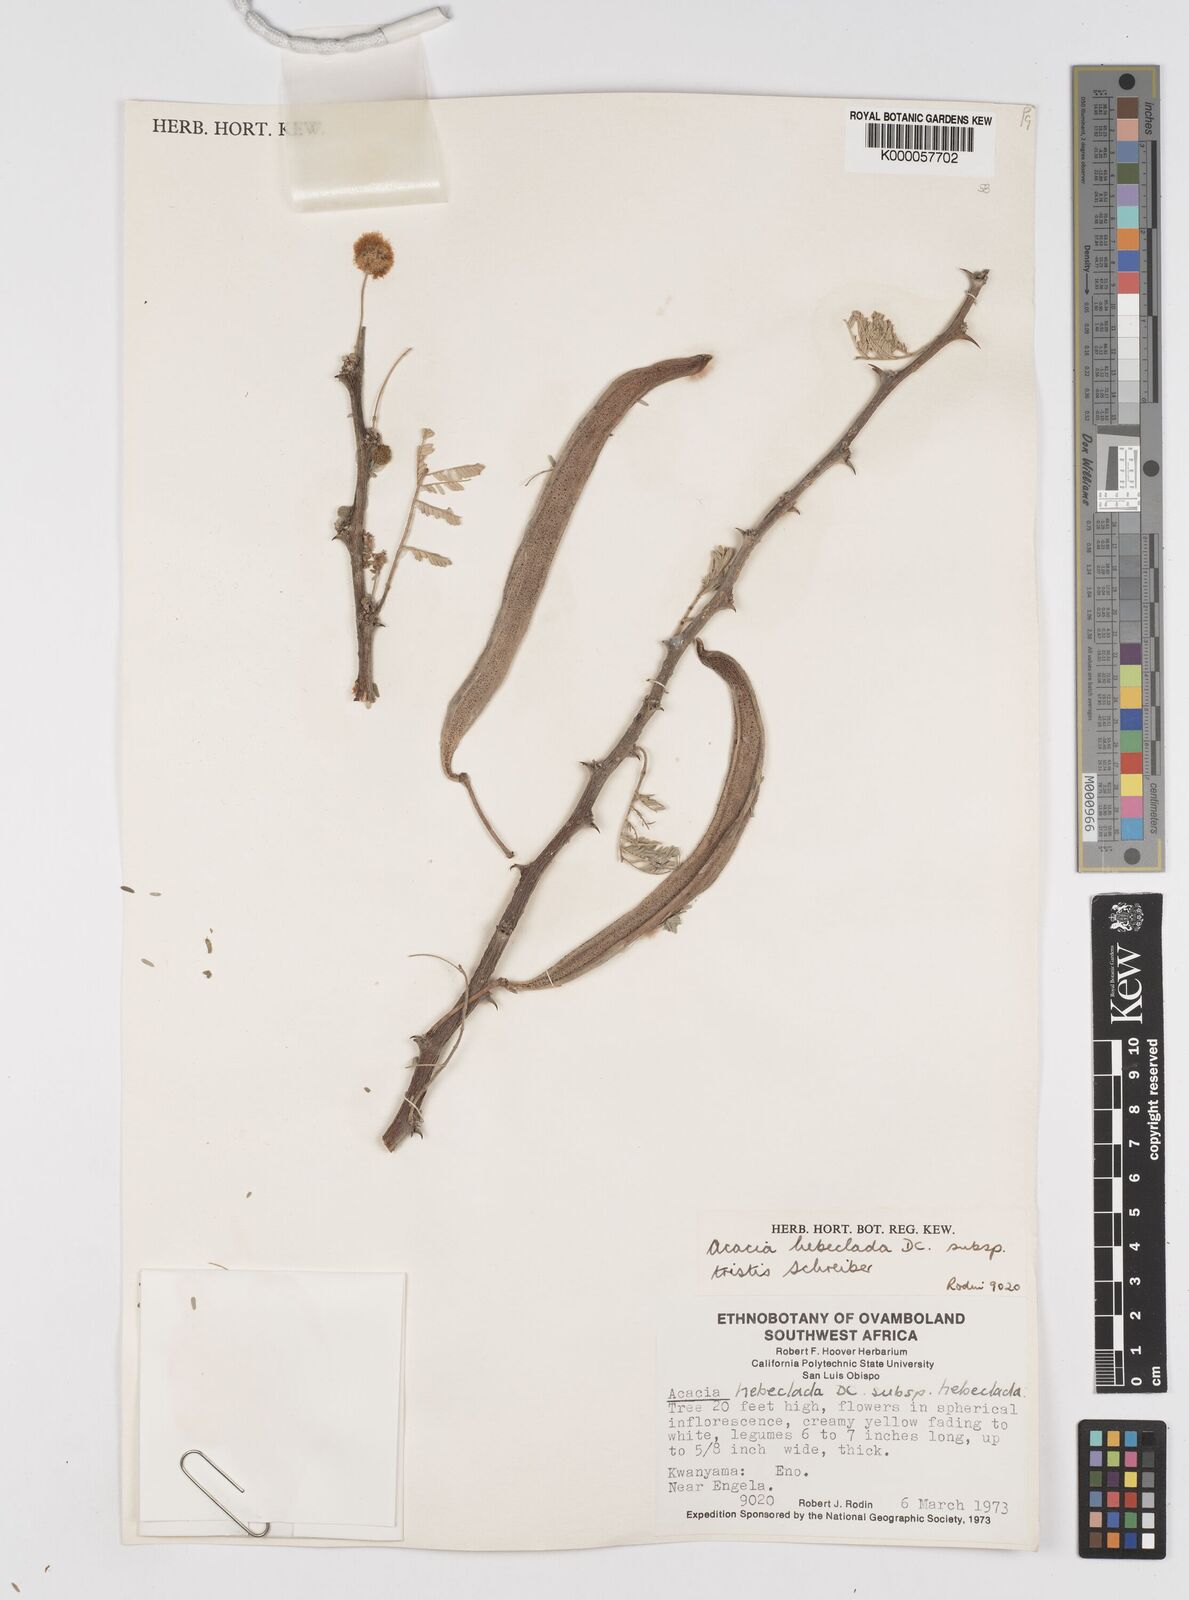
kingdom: Plantae
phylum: Tracheophyta
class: Magnoliopsida
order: Fabales
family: Fabaceae
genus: Vachellia
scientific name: Vachellia hebeclada
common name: Candle thorn
